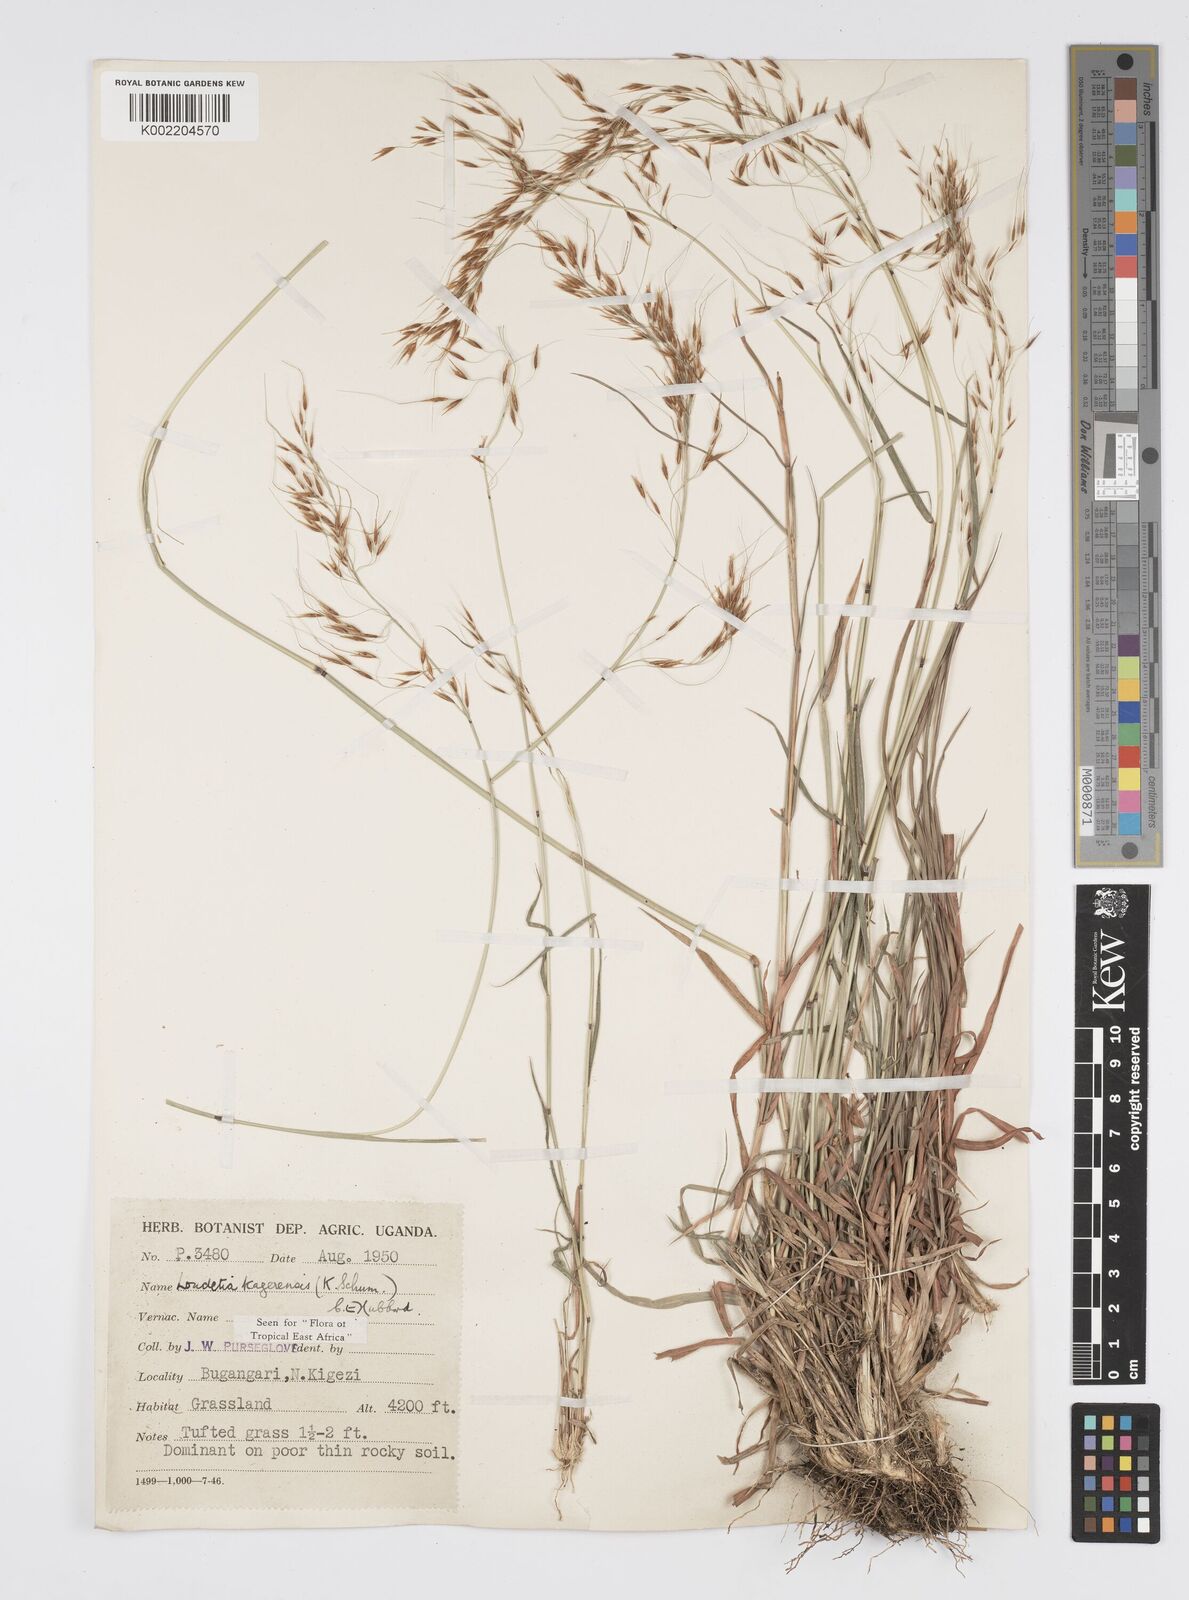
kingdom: Plantae
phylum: Tracheophyta
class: Liliopsida
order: Poales
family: Poaceae
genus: Loudetia
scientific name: Loudetia kagerensis
